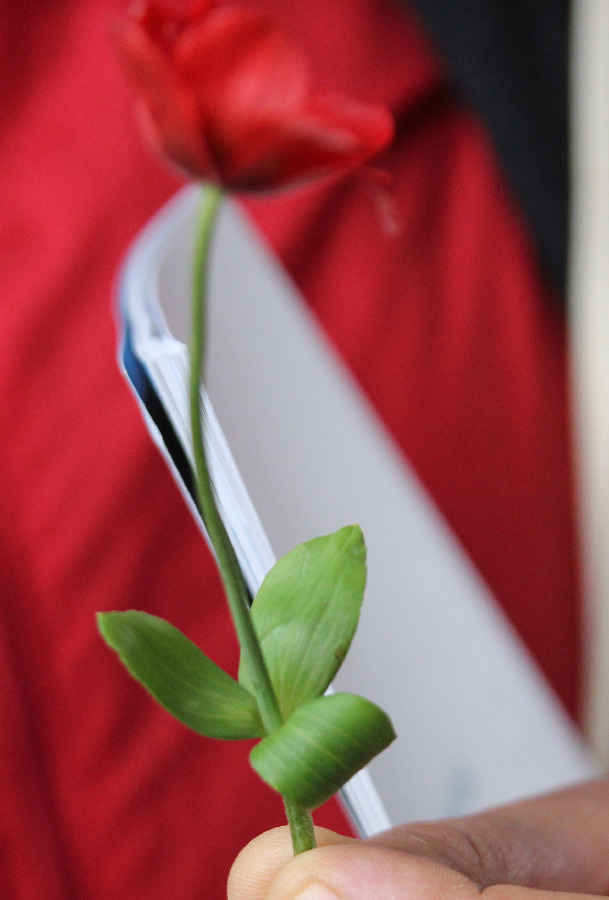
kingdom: Plantae
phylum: Tracheophyta
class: Magnoliopsida
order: Ranunculales
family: Ranunculaceae
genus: Anemone
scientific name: Anemone pavonina
